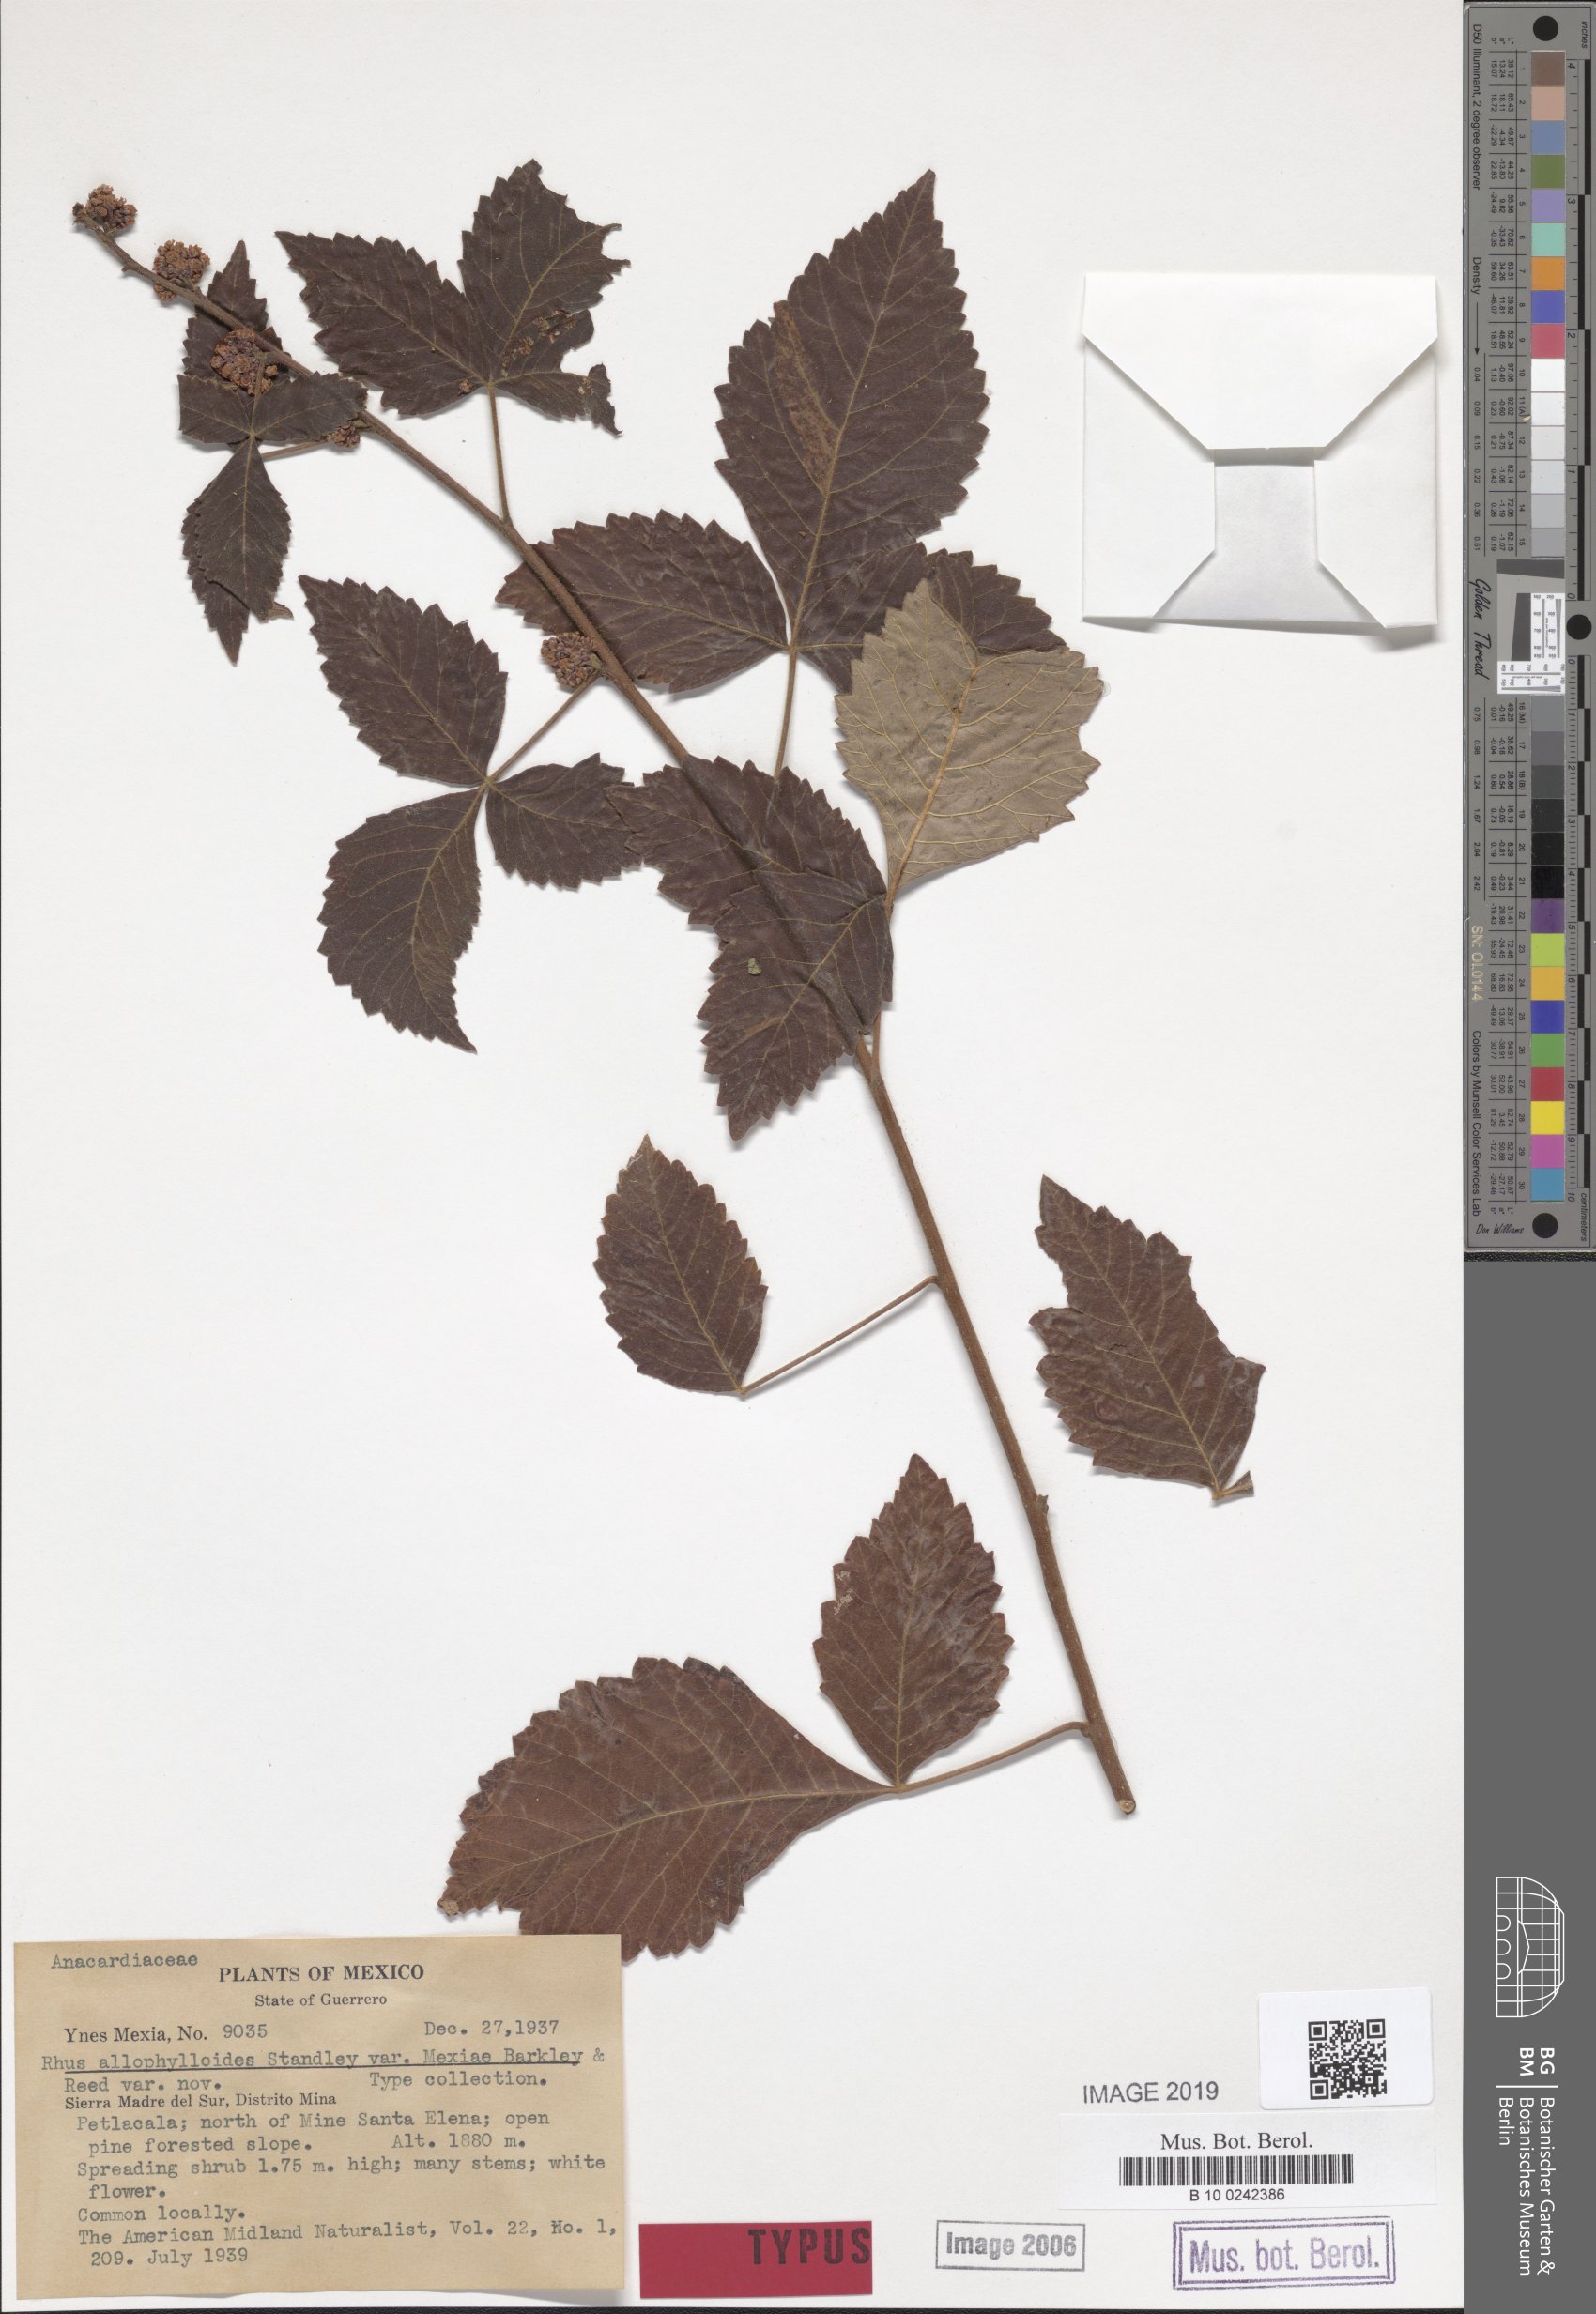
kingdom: Plantae
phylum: Tracheophyta
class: Magnoliopsida
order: Sapindales
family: Anacardiaceae
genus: Rhus
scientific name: Rhus allophyloides
